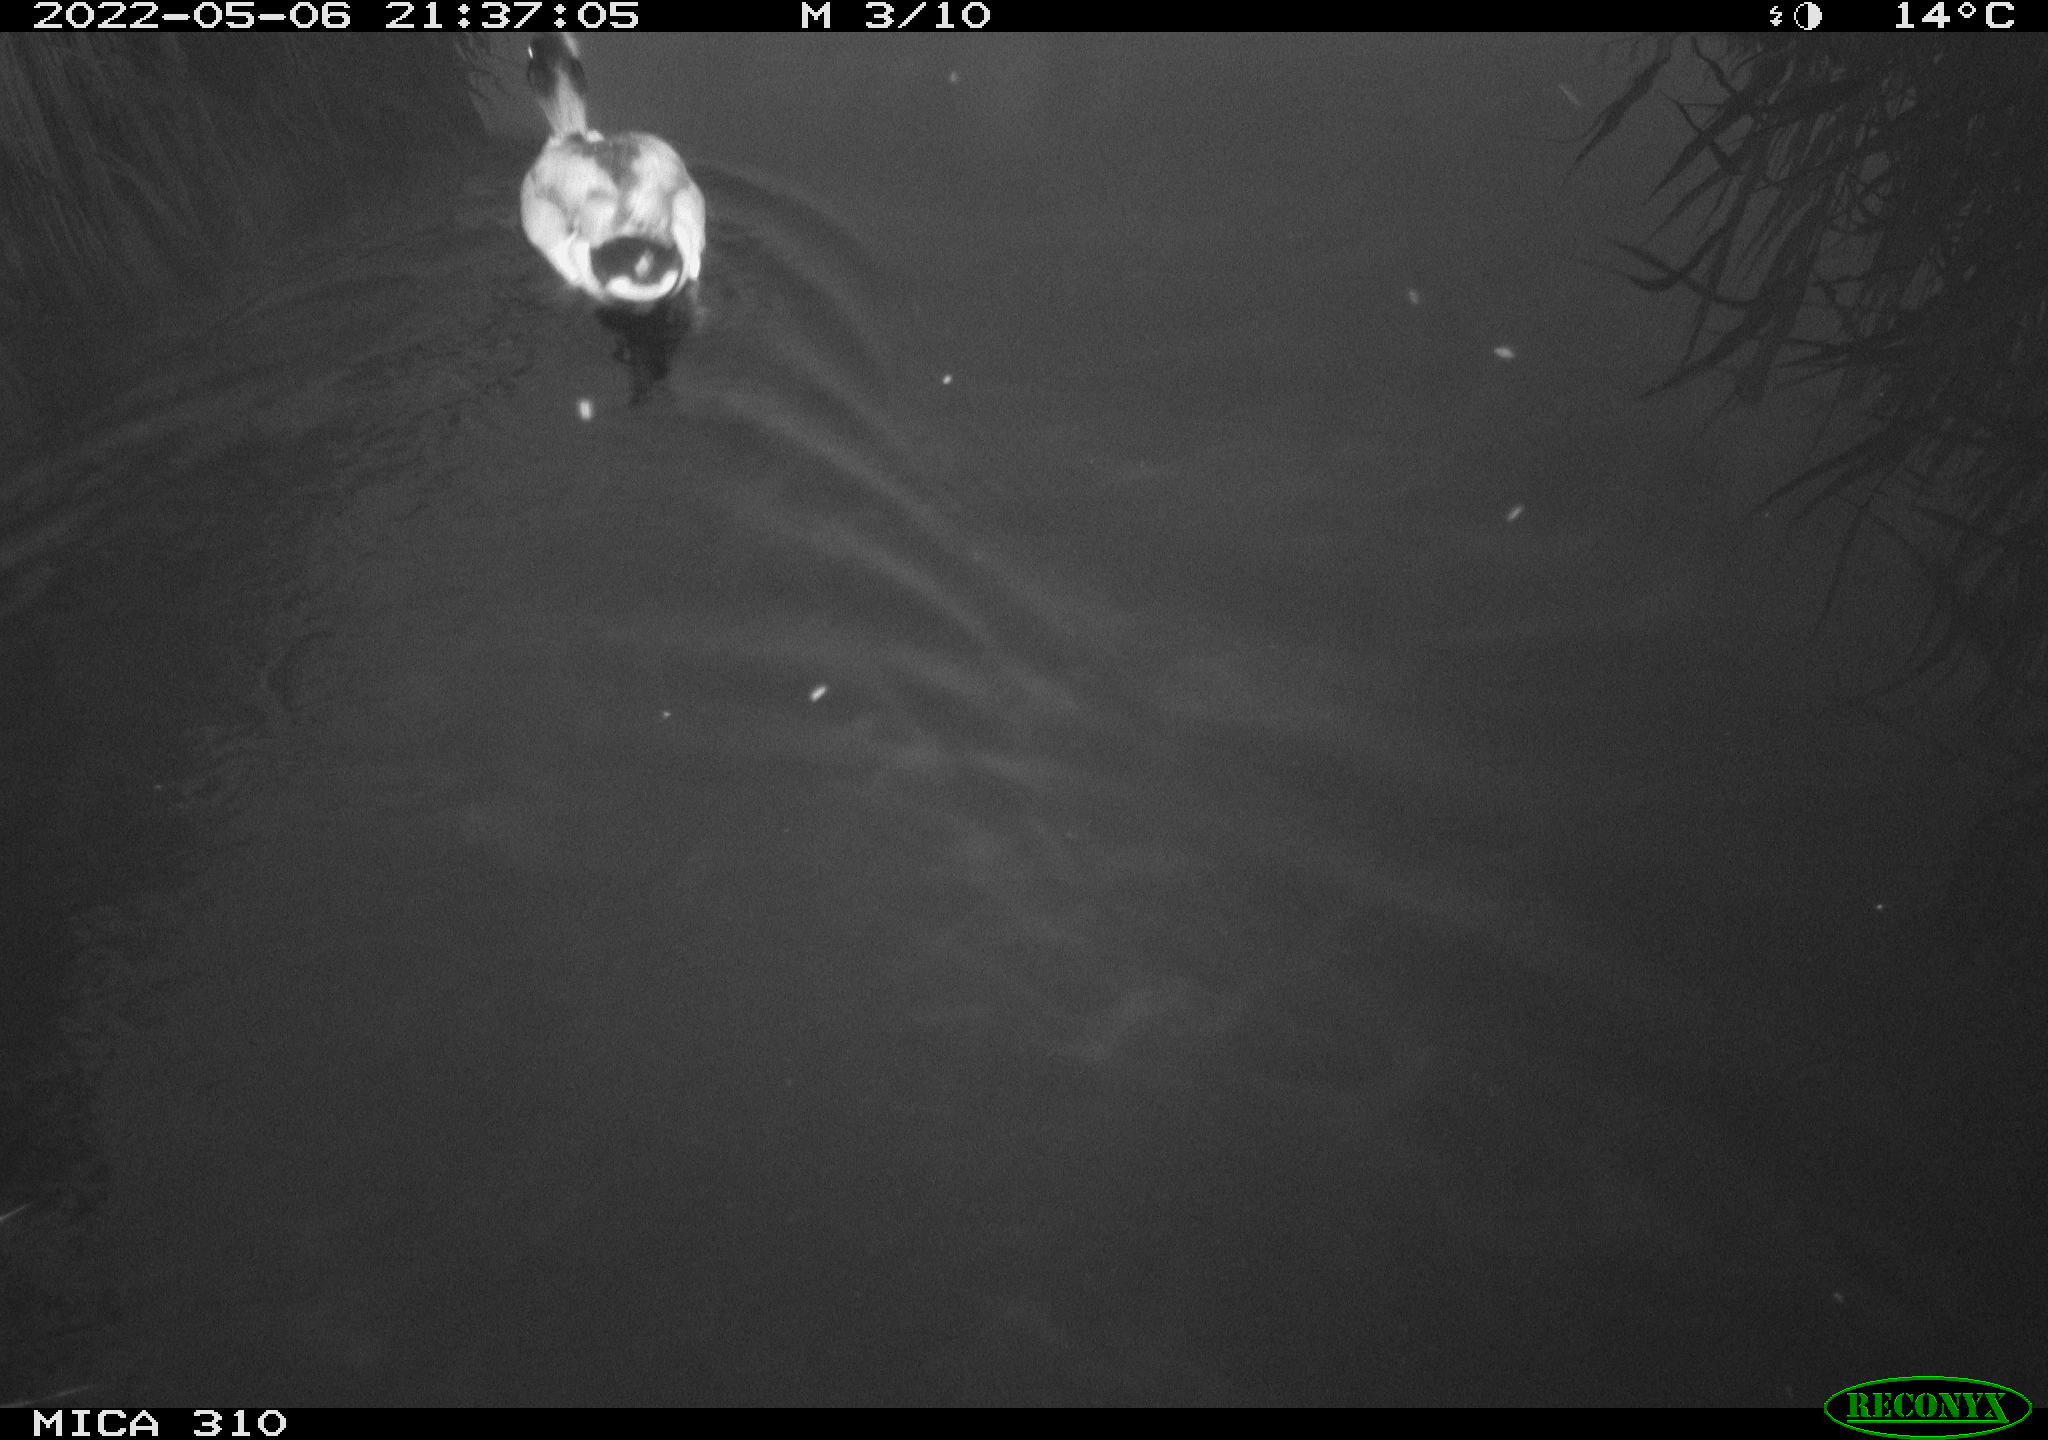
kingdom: Animalia
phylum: Chordata
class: Aves
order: Pelecaniformes
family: Ardeidae
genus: Ardea
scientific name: Ardea
